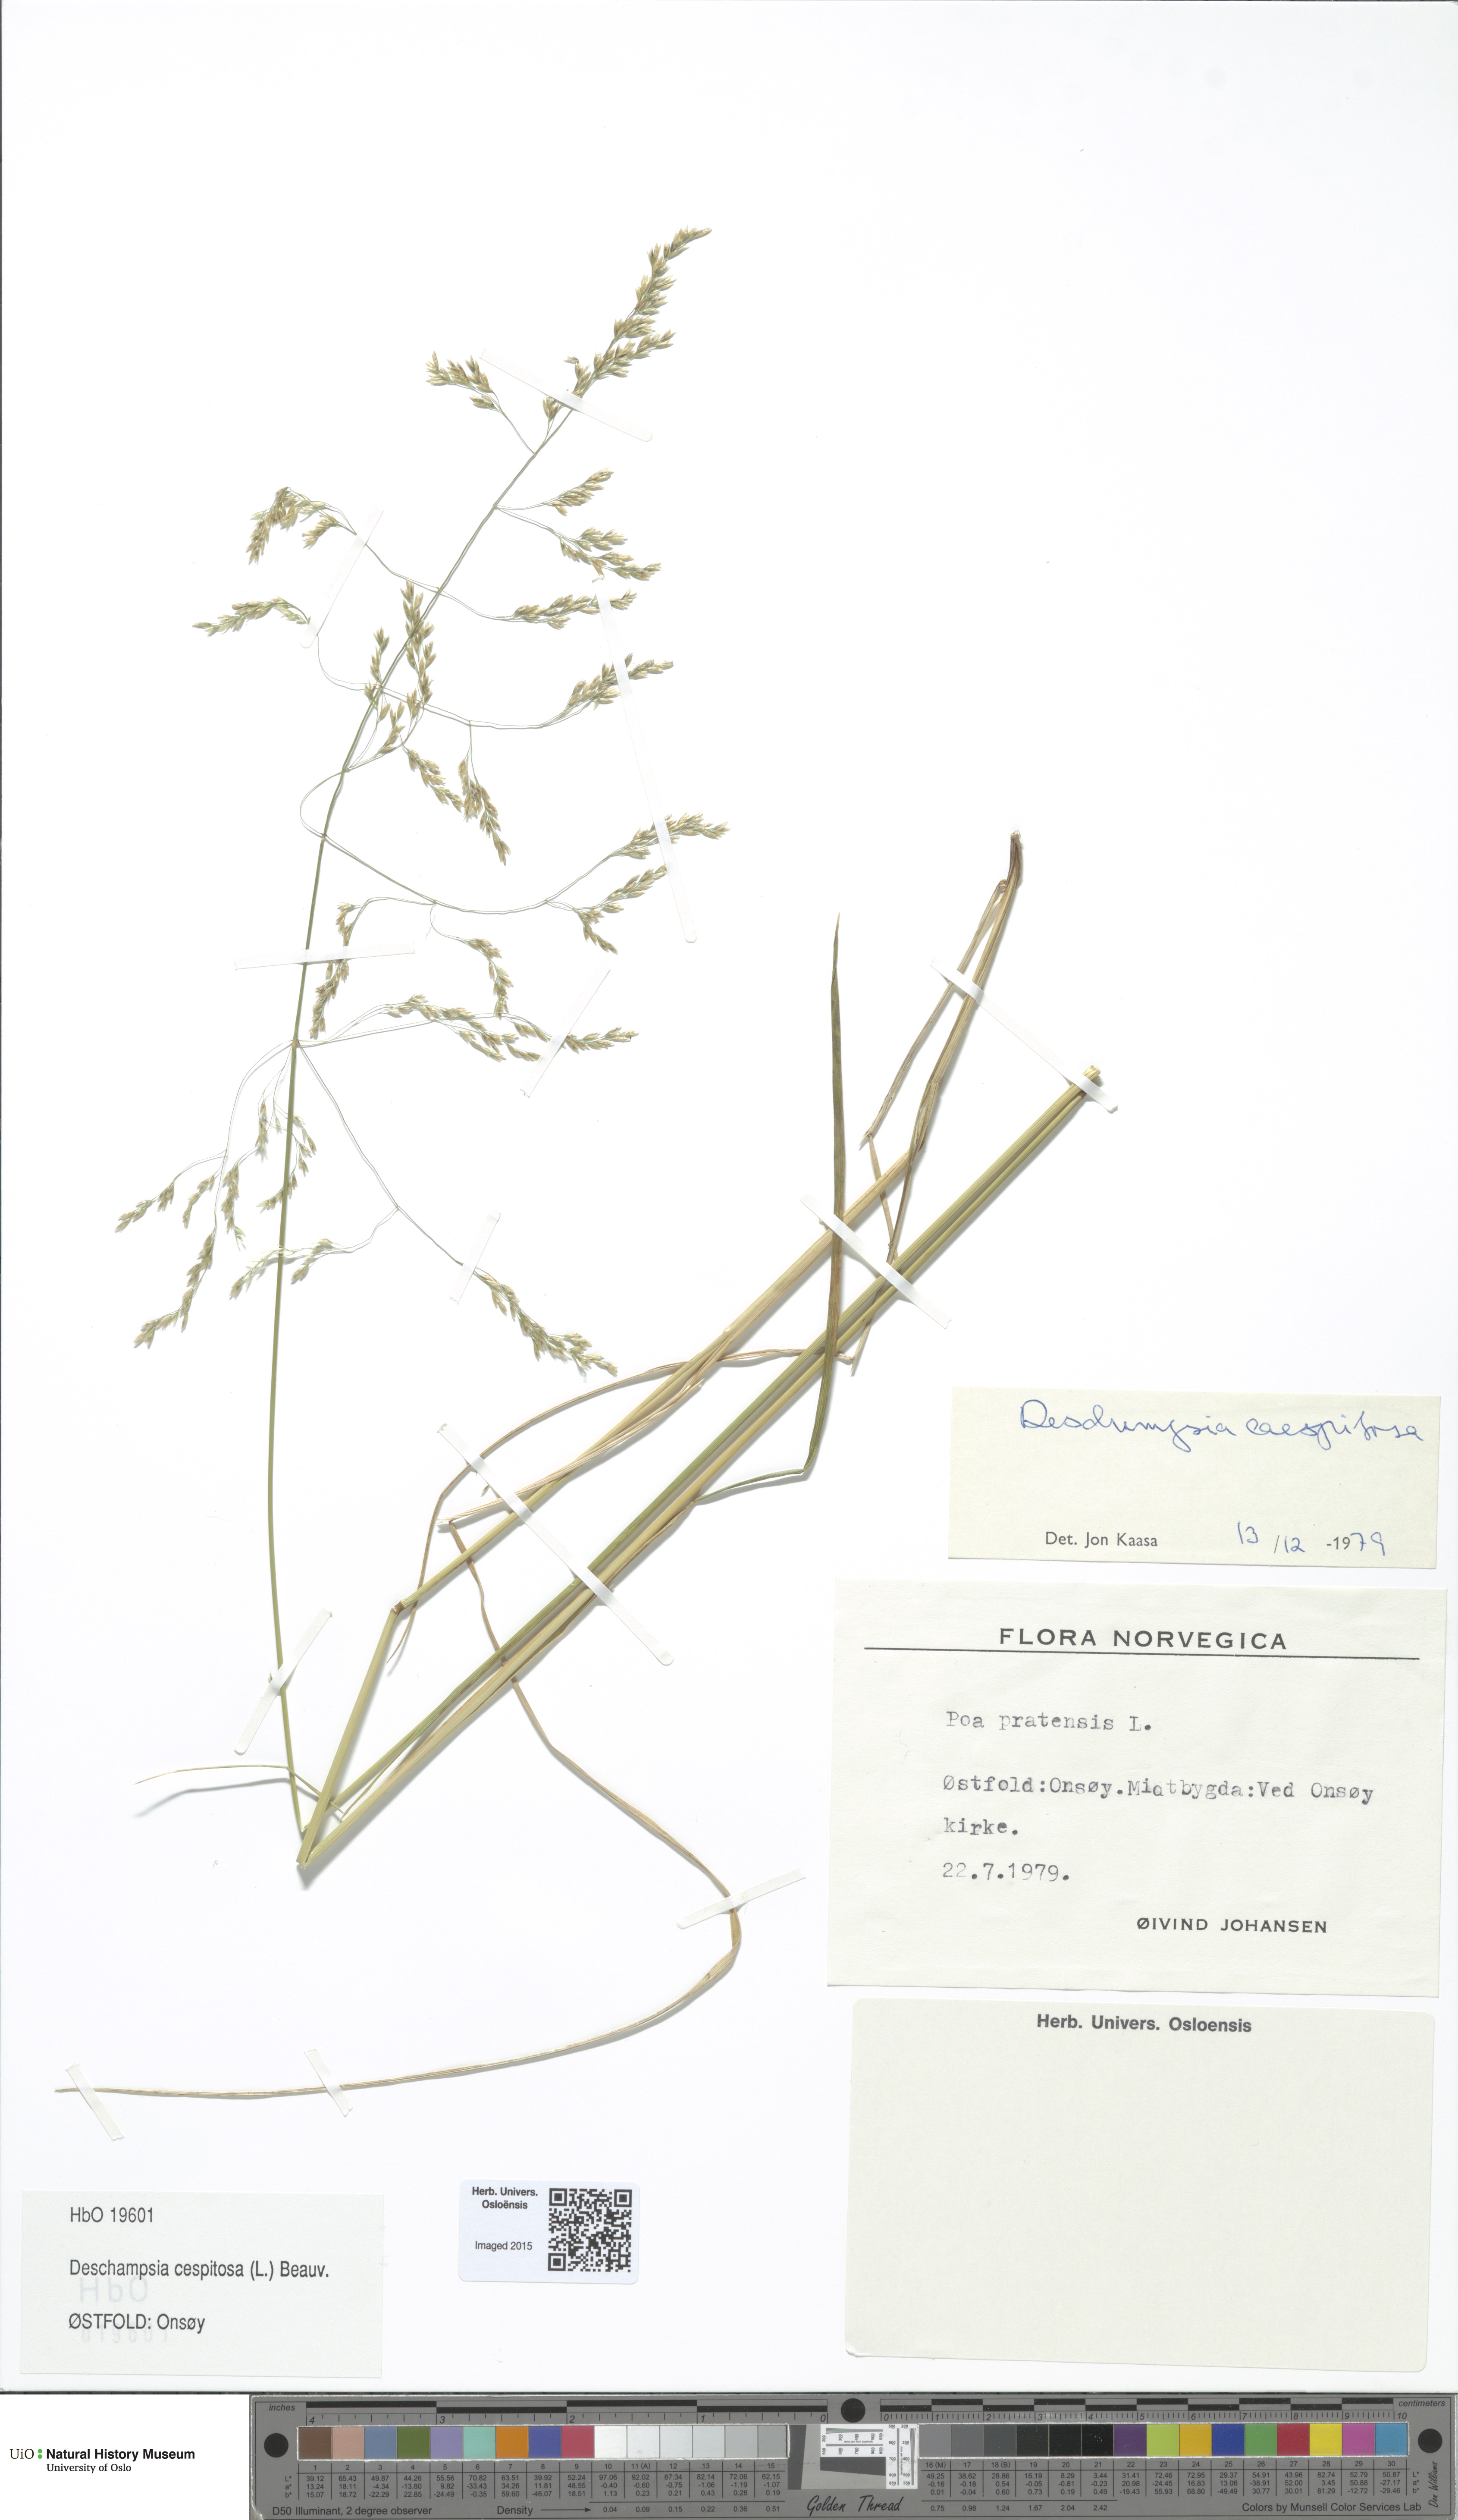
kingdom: Plantae
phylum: Tracheophyta
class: Liliopsida
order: Poales
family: Poaceae
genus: Deschampsia
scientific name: Deschampsia cespitosa
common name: Tufted hair-grass
